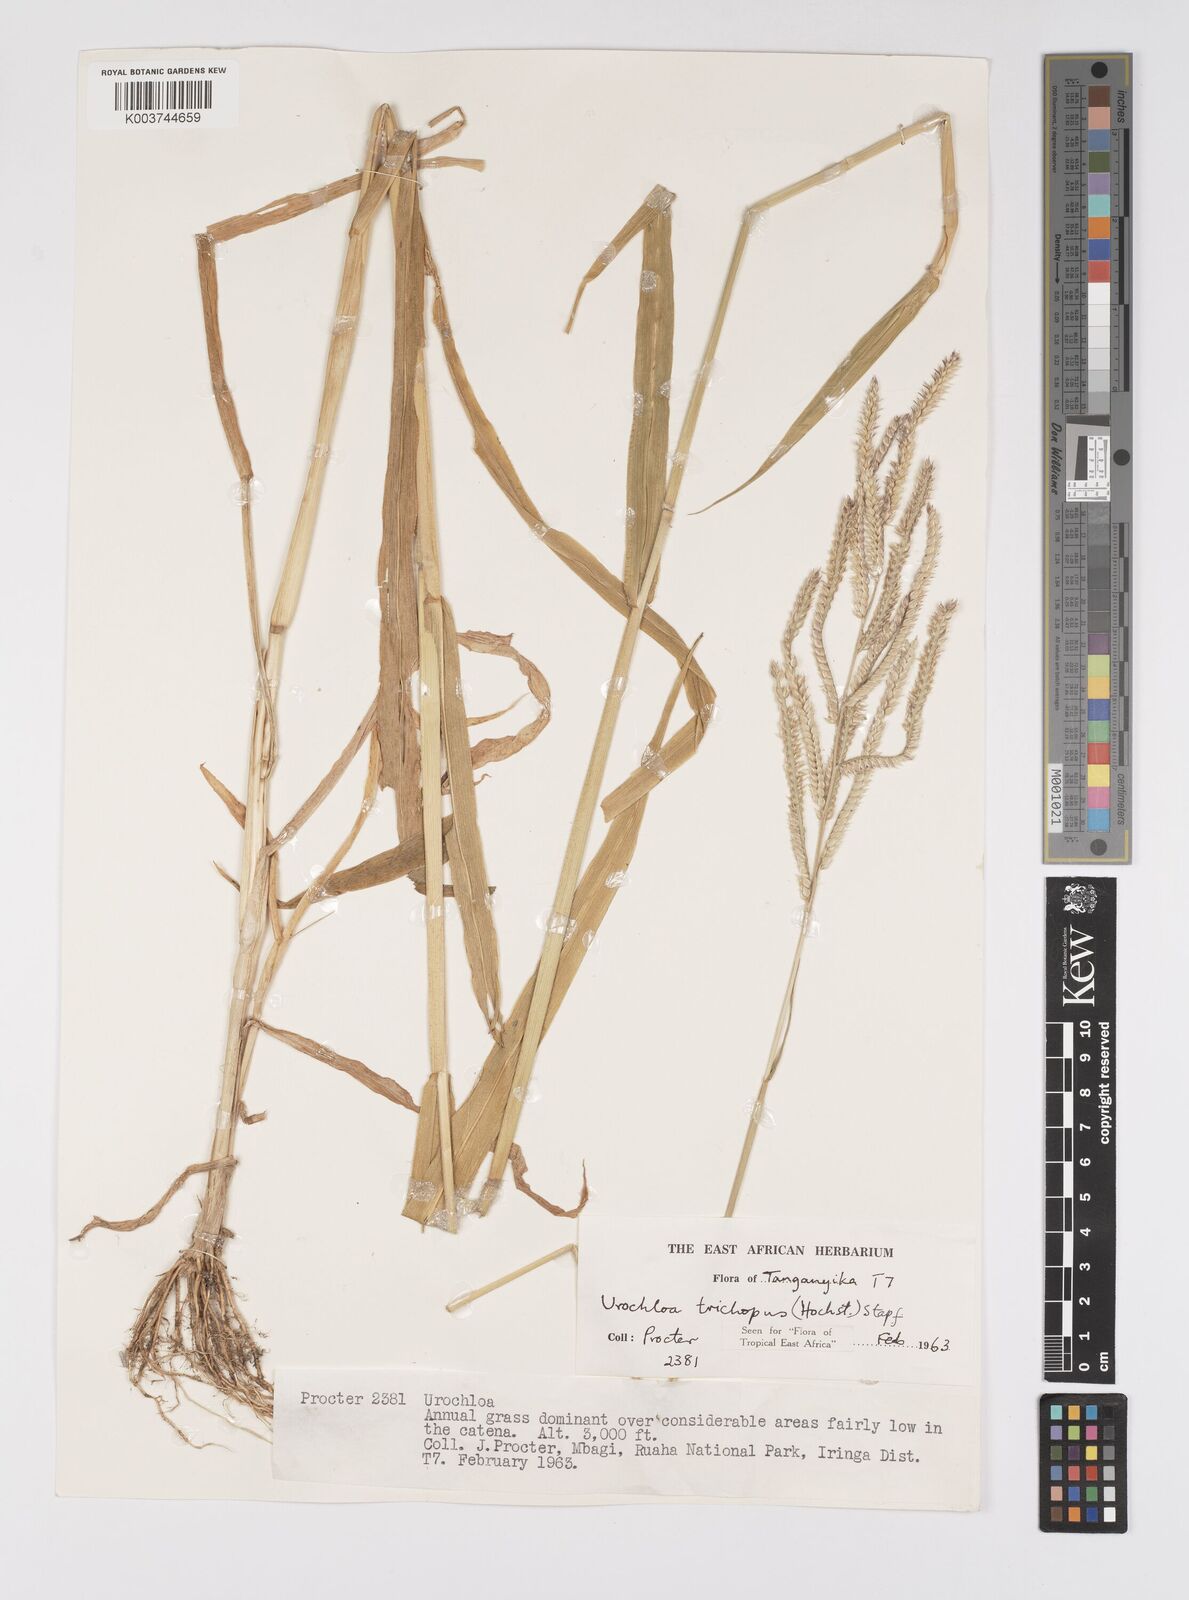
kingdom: Plantae
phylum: Tracheophyta
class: Liliopsida
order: Poales
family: Poaceae
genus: Urochloa
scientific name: Urochloa trichopus
